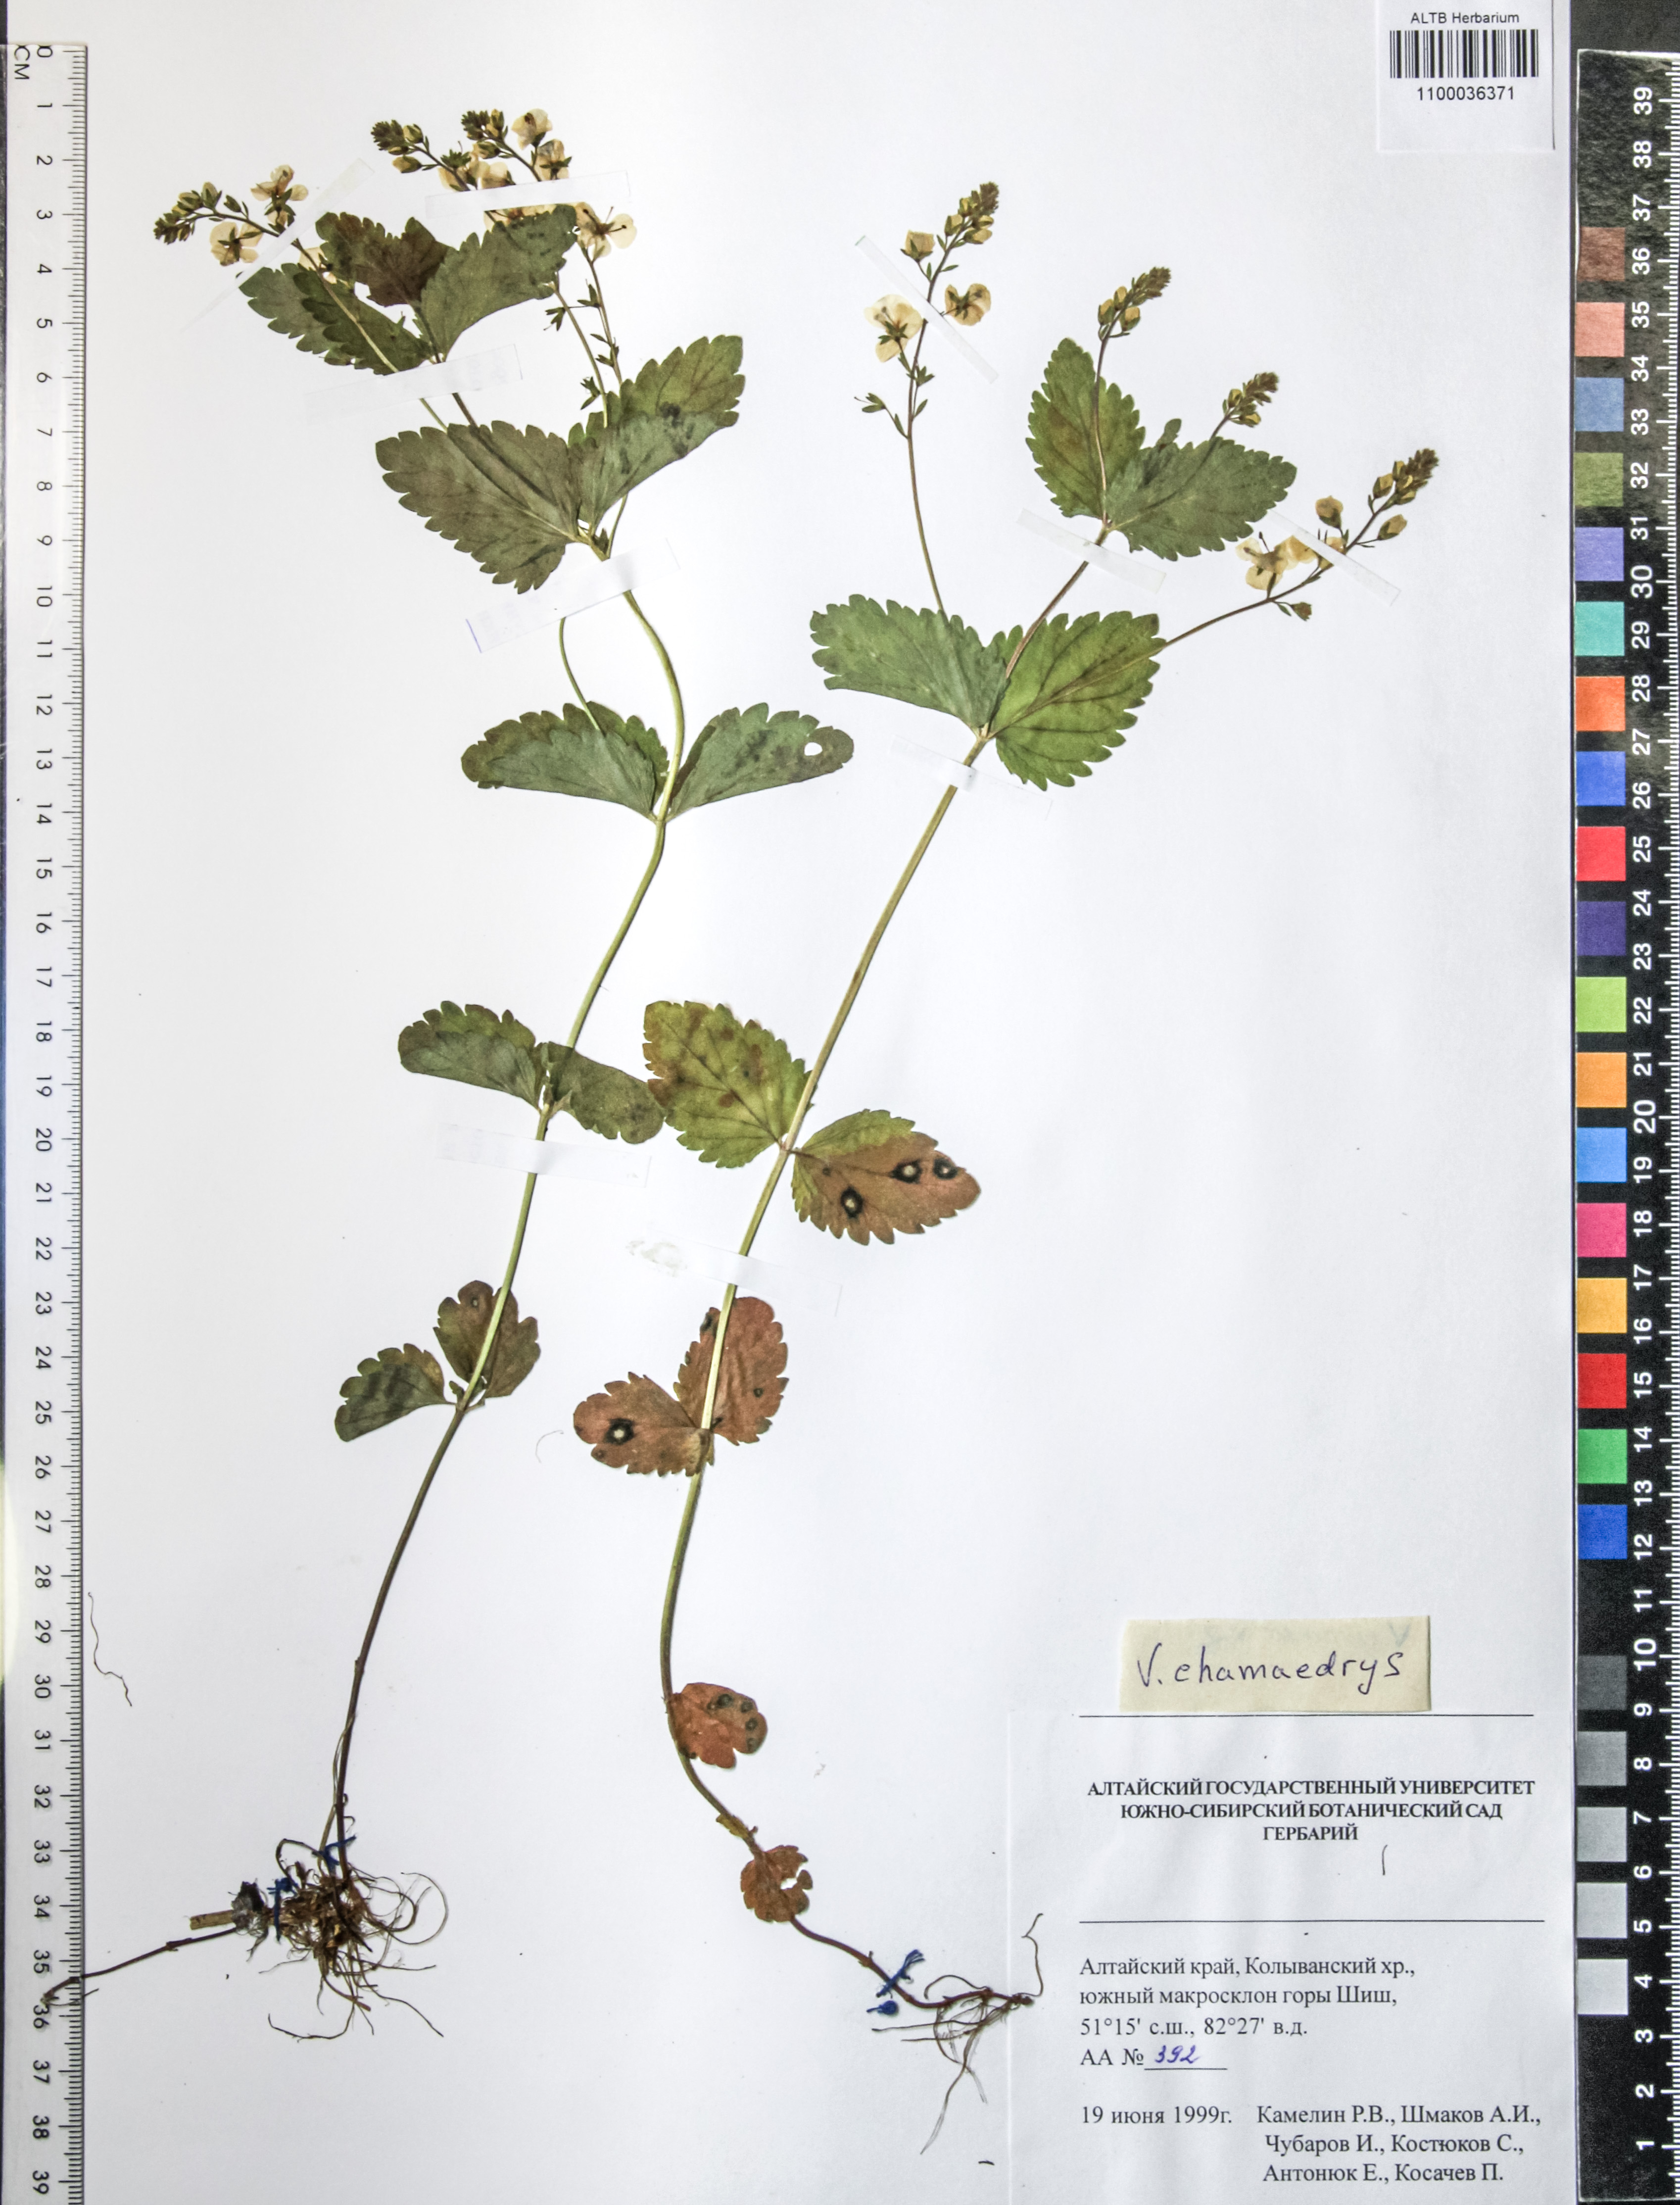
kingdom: Plantae
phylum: Tracheophyta
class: Magnoliopsida
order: Lamiales
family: Plantaginaceae
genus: Veronica
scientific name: Veronica chamaedrys
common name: Germander speedwell
